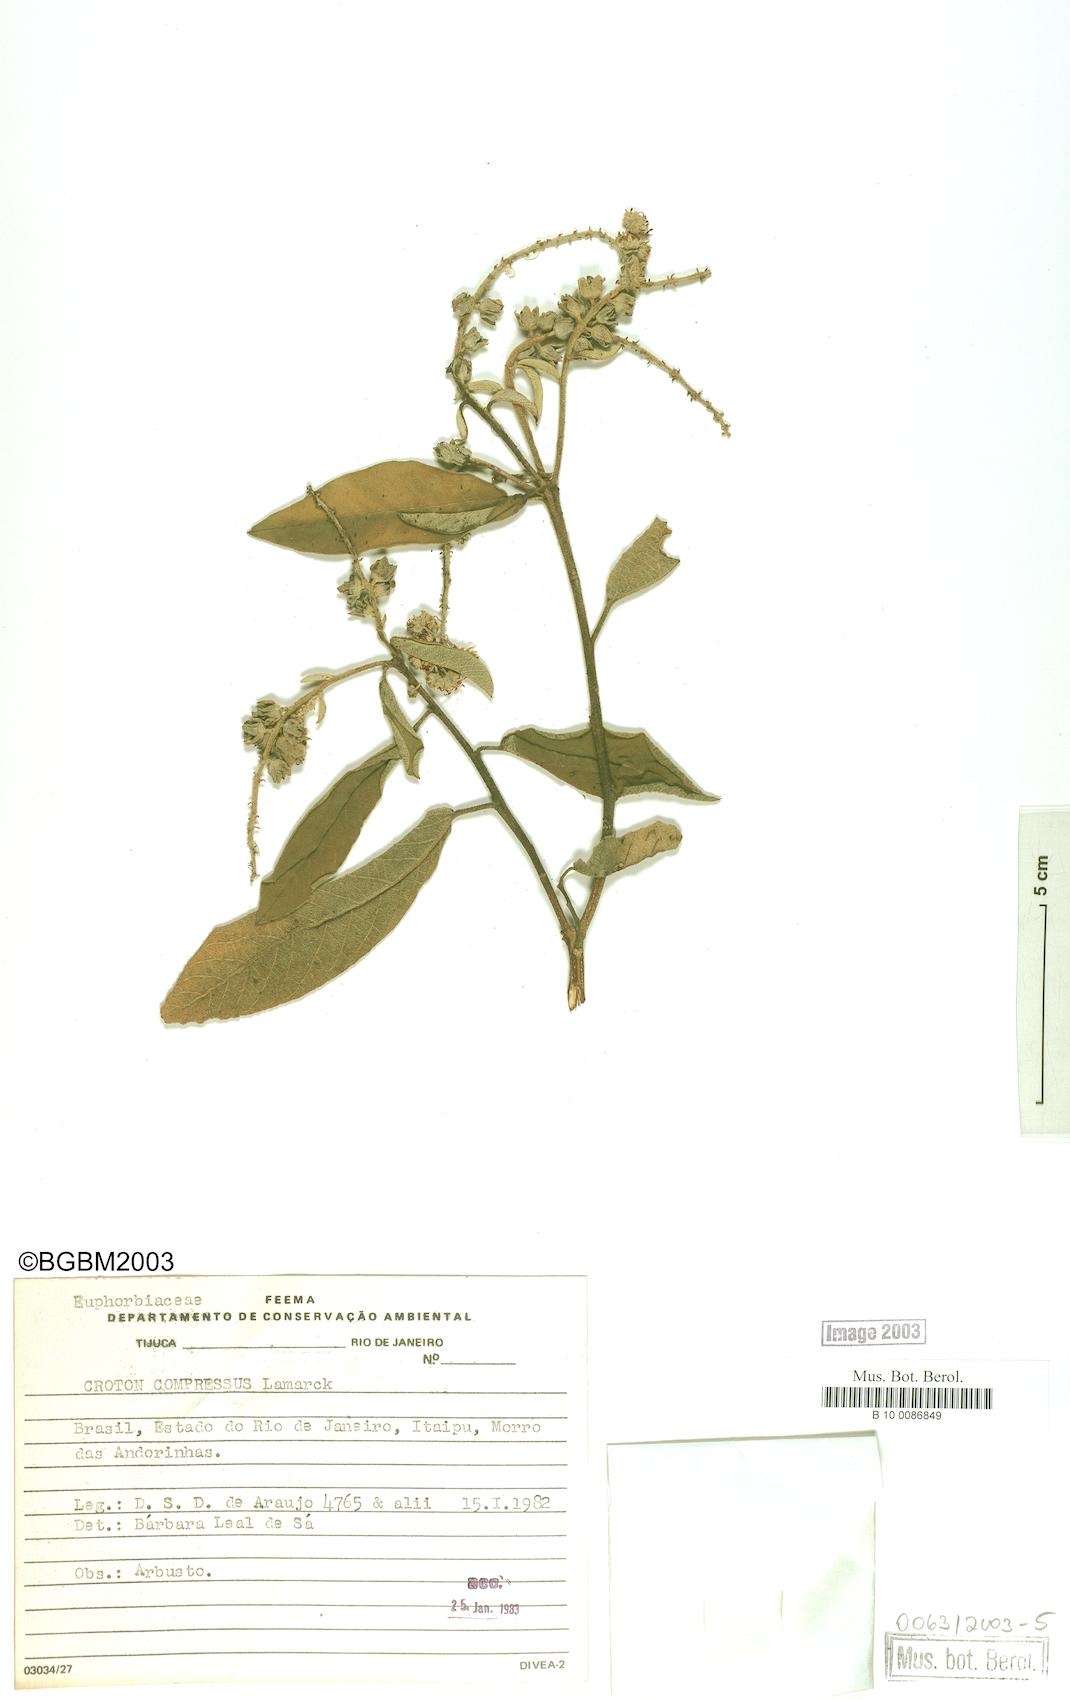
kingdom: Plantae
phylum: Tracheophyta
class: Magnoliopsida
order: Malpighiales
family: Euphorbiaceae
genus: Croton
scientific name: Croton compressus
